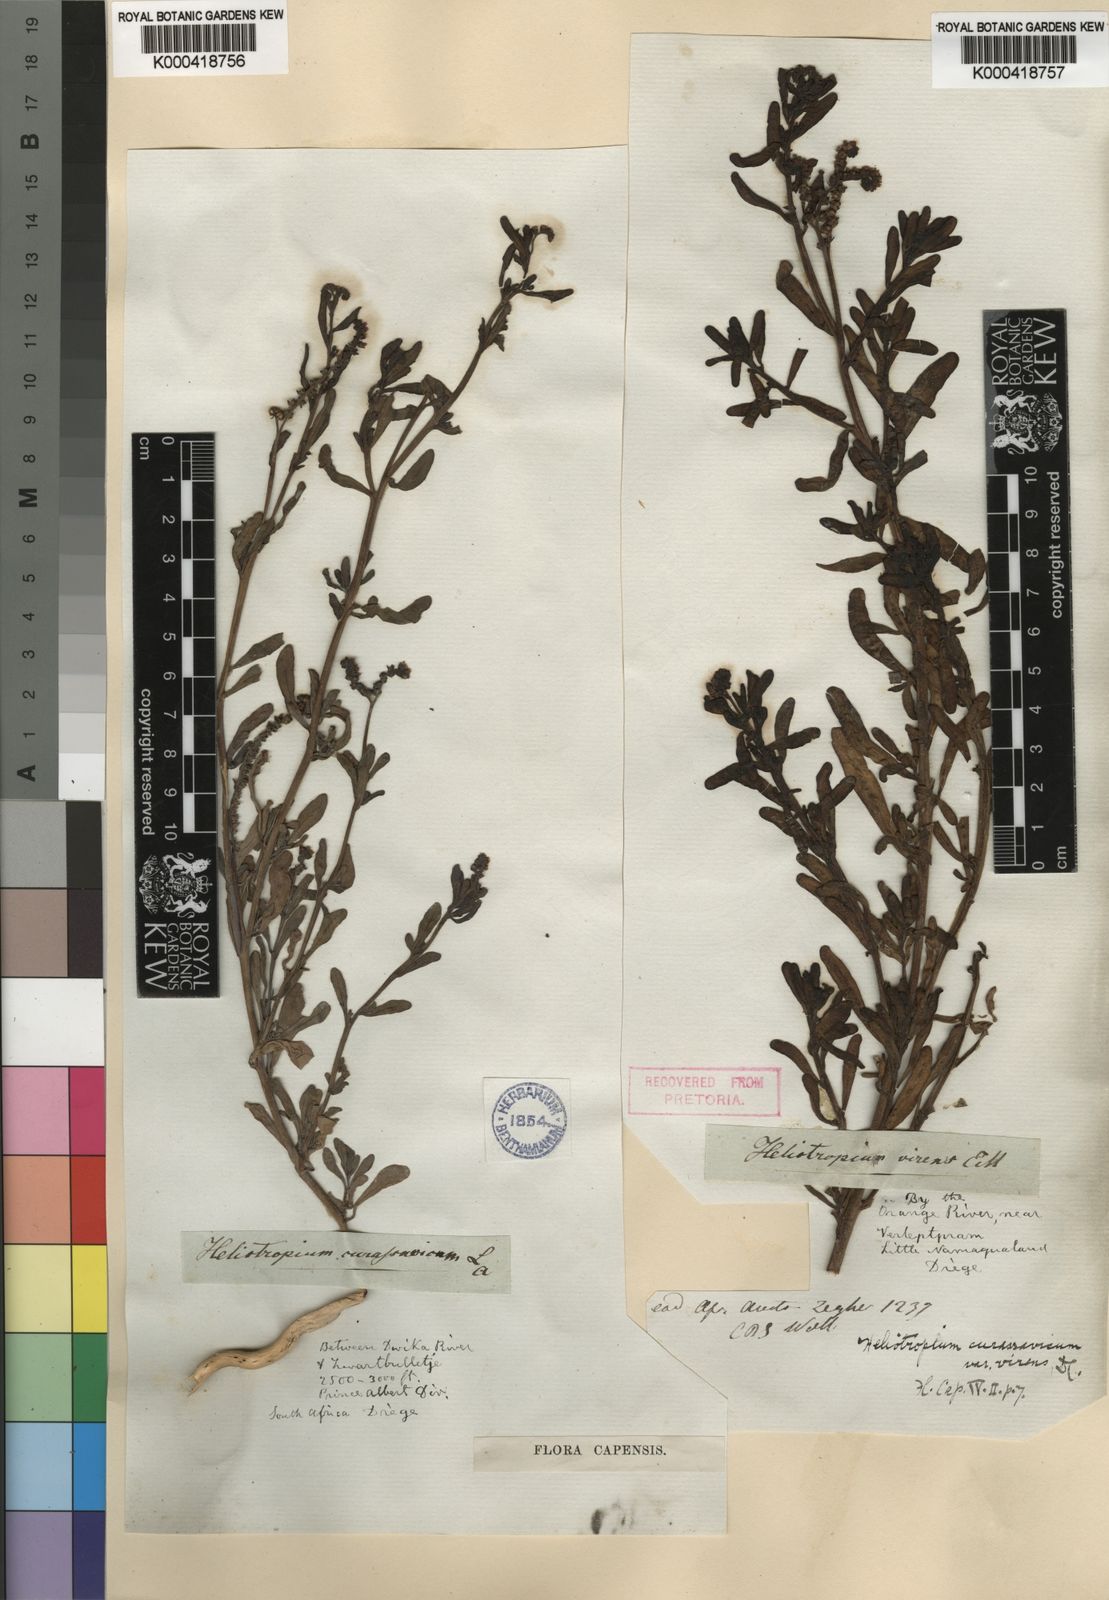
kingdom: Plantae
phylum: Tracheophyta
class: Magnoliopsida
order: Boraginales
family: Heliotropiaceae
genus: Heliotropium
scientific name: Heliotropium curassavicum
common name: Seaside heliotrope
